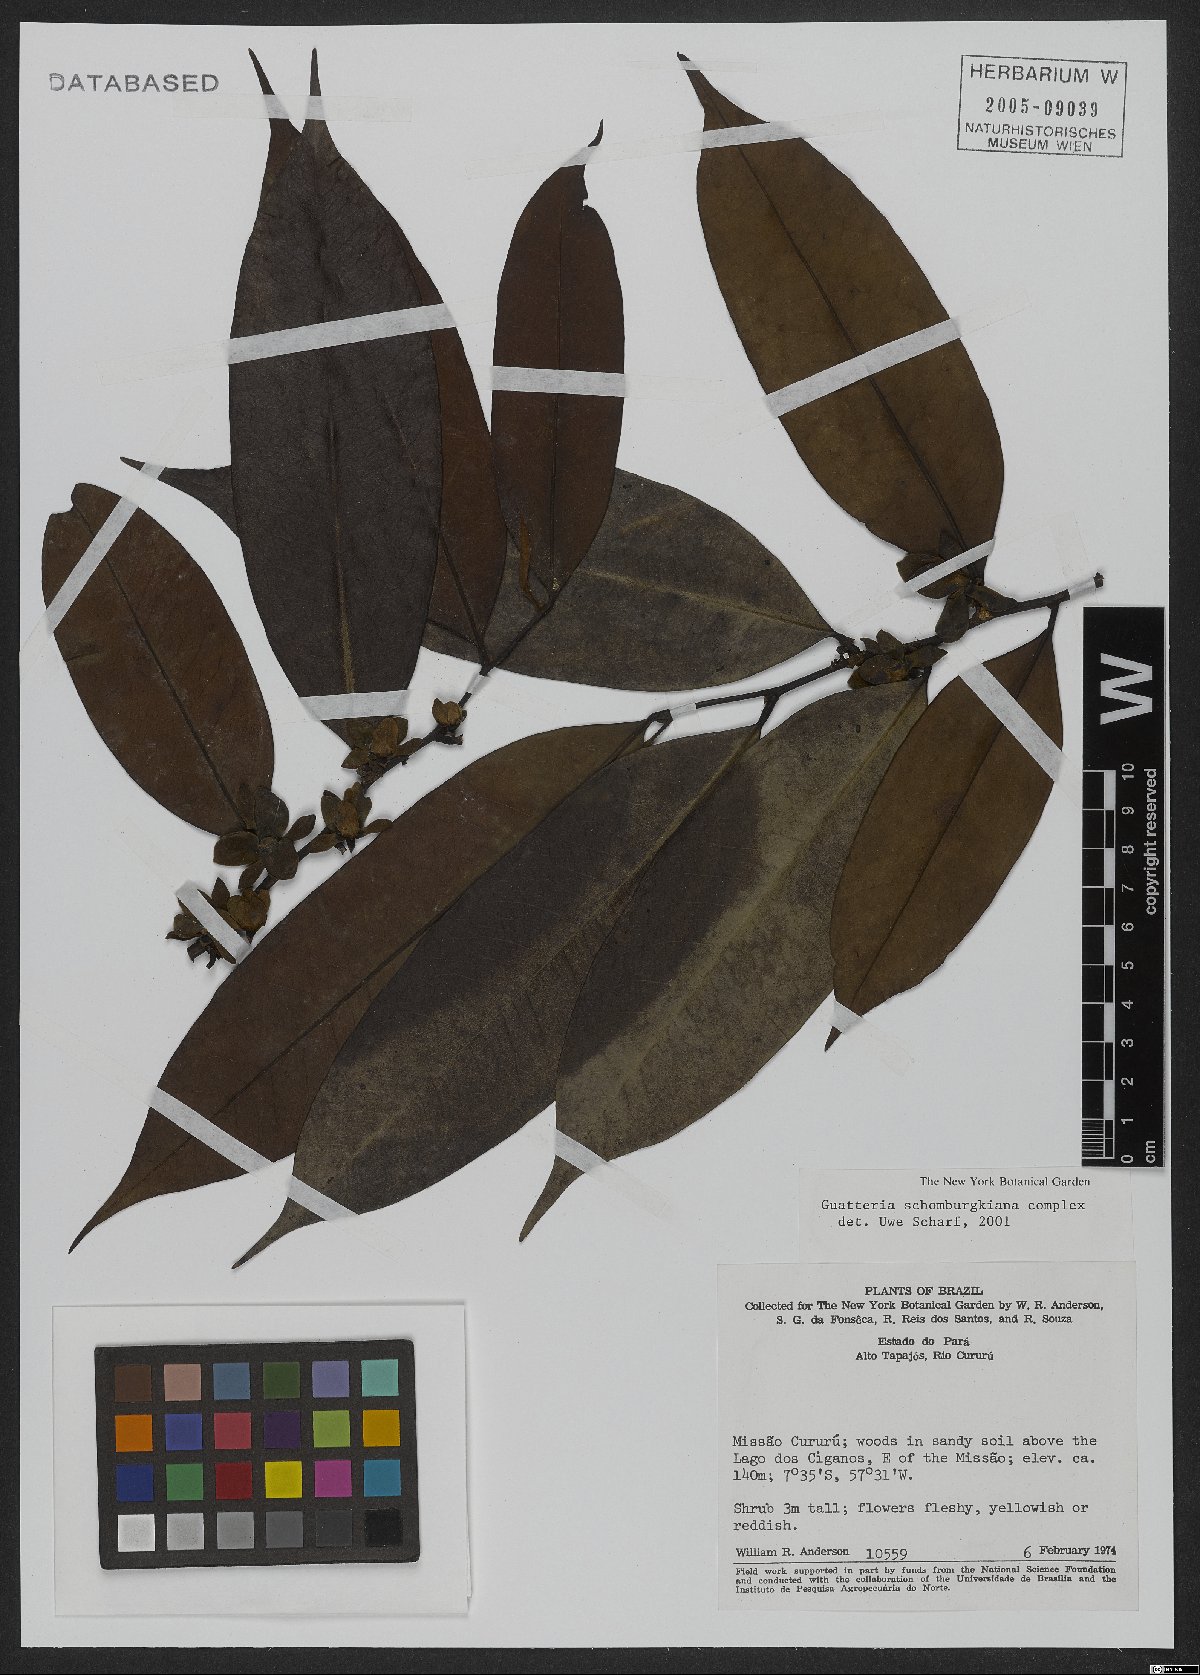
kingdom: Plantae
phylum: Tracheophyta
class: Magnoliopsida
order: Magnoliales
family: Annonaceae
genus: Guatteria
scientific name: Guatteria schomburgkiana
